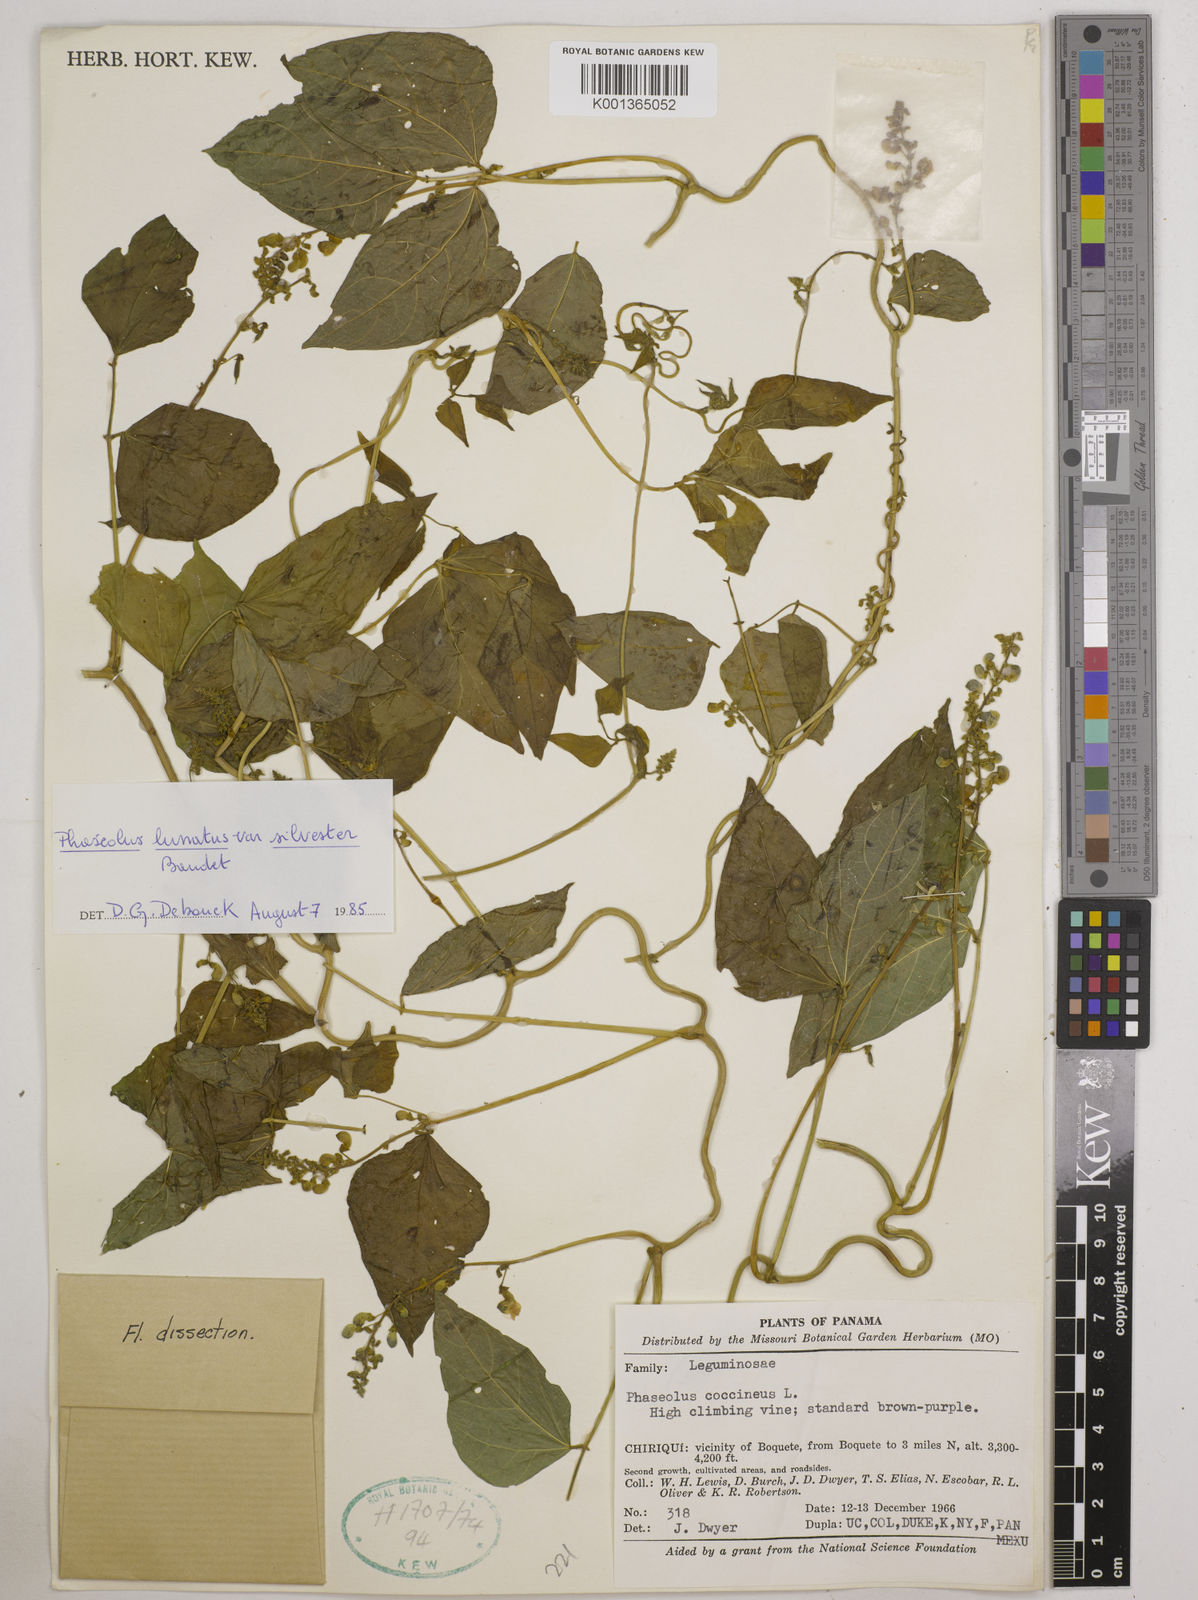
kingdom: Plantae
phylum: Tracheophyta
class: Magnoliopsida
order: Fabales
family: Fabaceae
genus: Phaseolus
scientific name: Phaseolus lunatus
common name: Sieva bean
